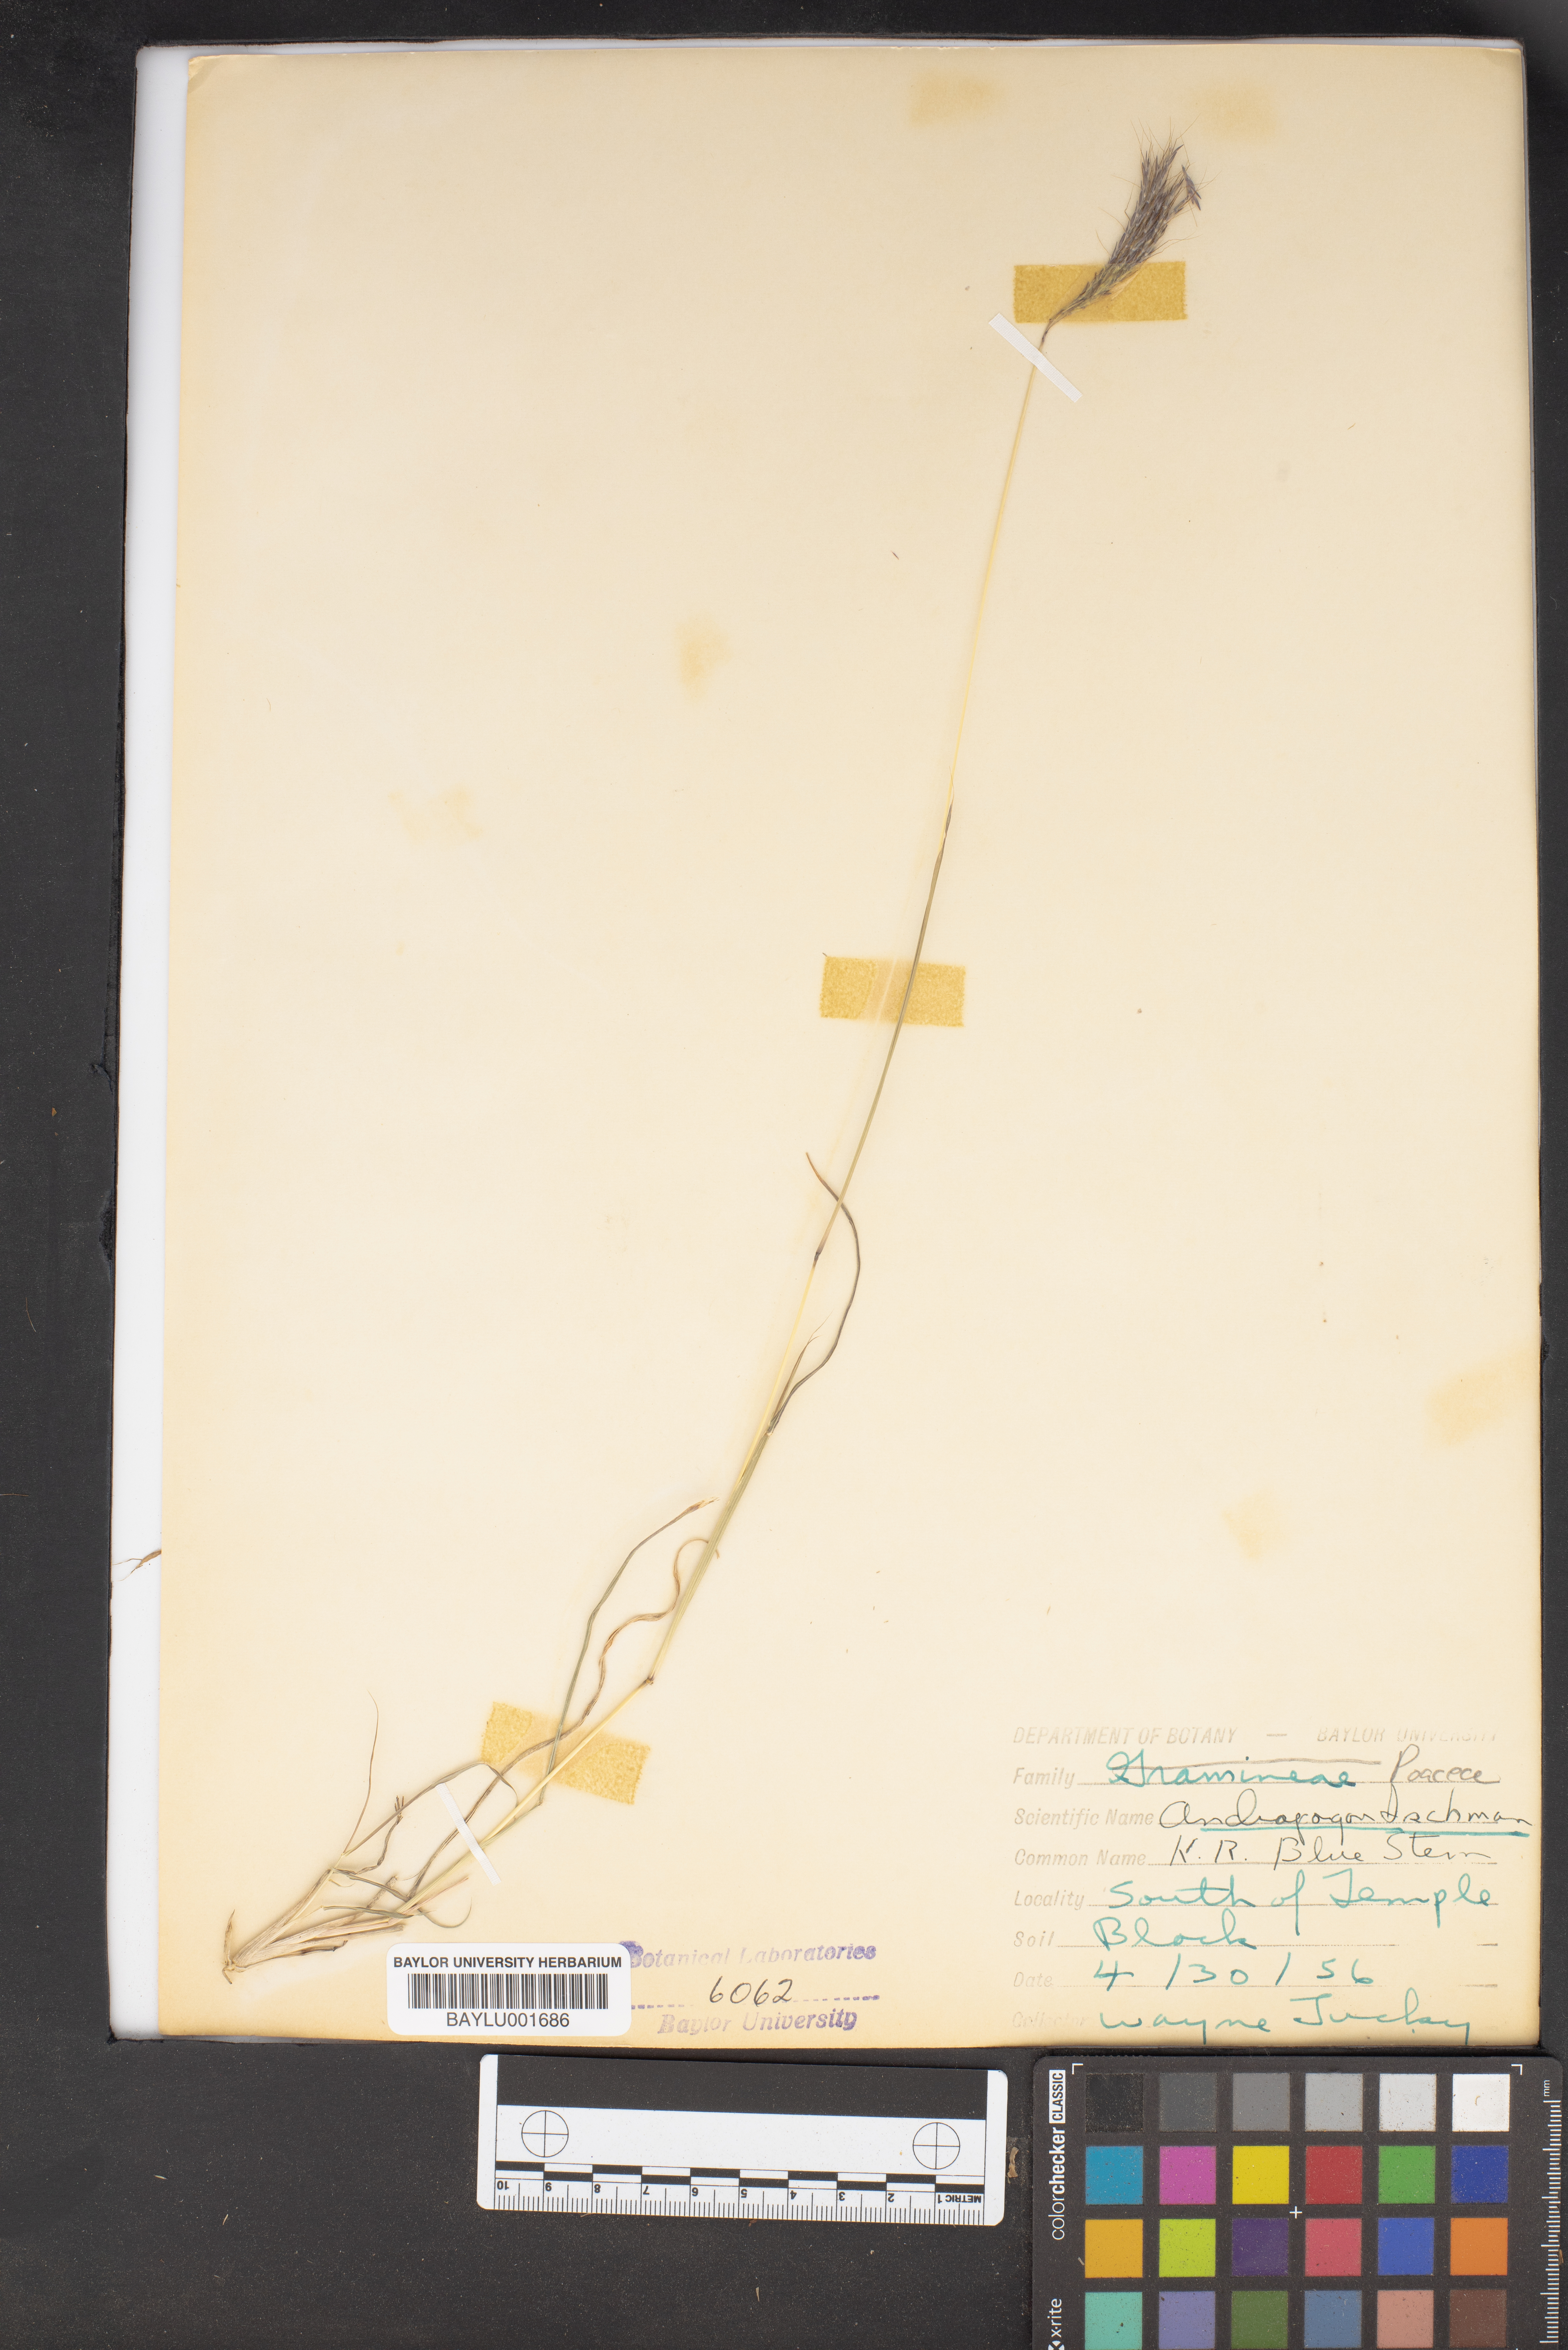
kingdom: Plantae
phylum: Tracheophyta
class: Liliopsida
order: Poales
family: Poaceae
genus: Andropogon
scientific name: Andropogon ischaemum
